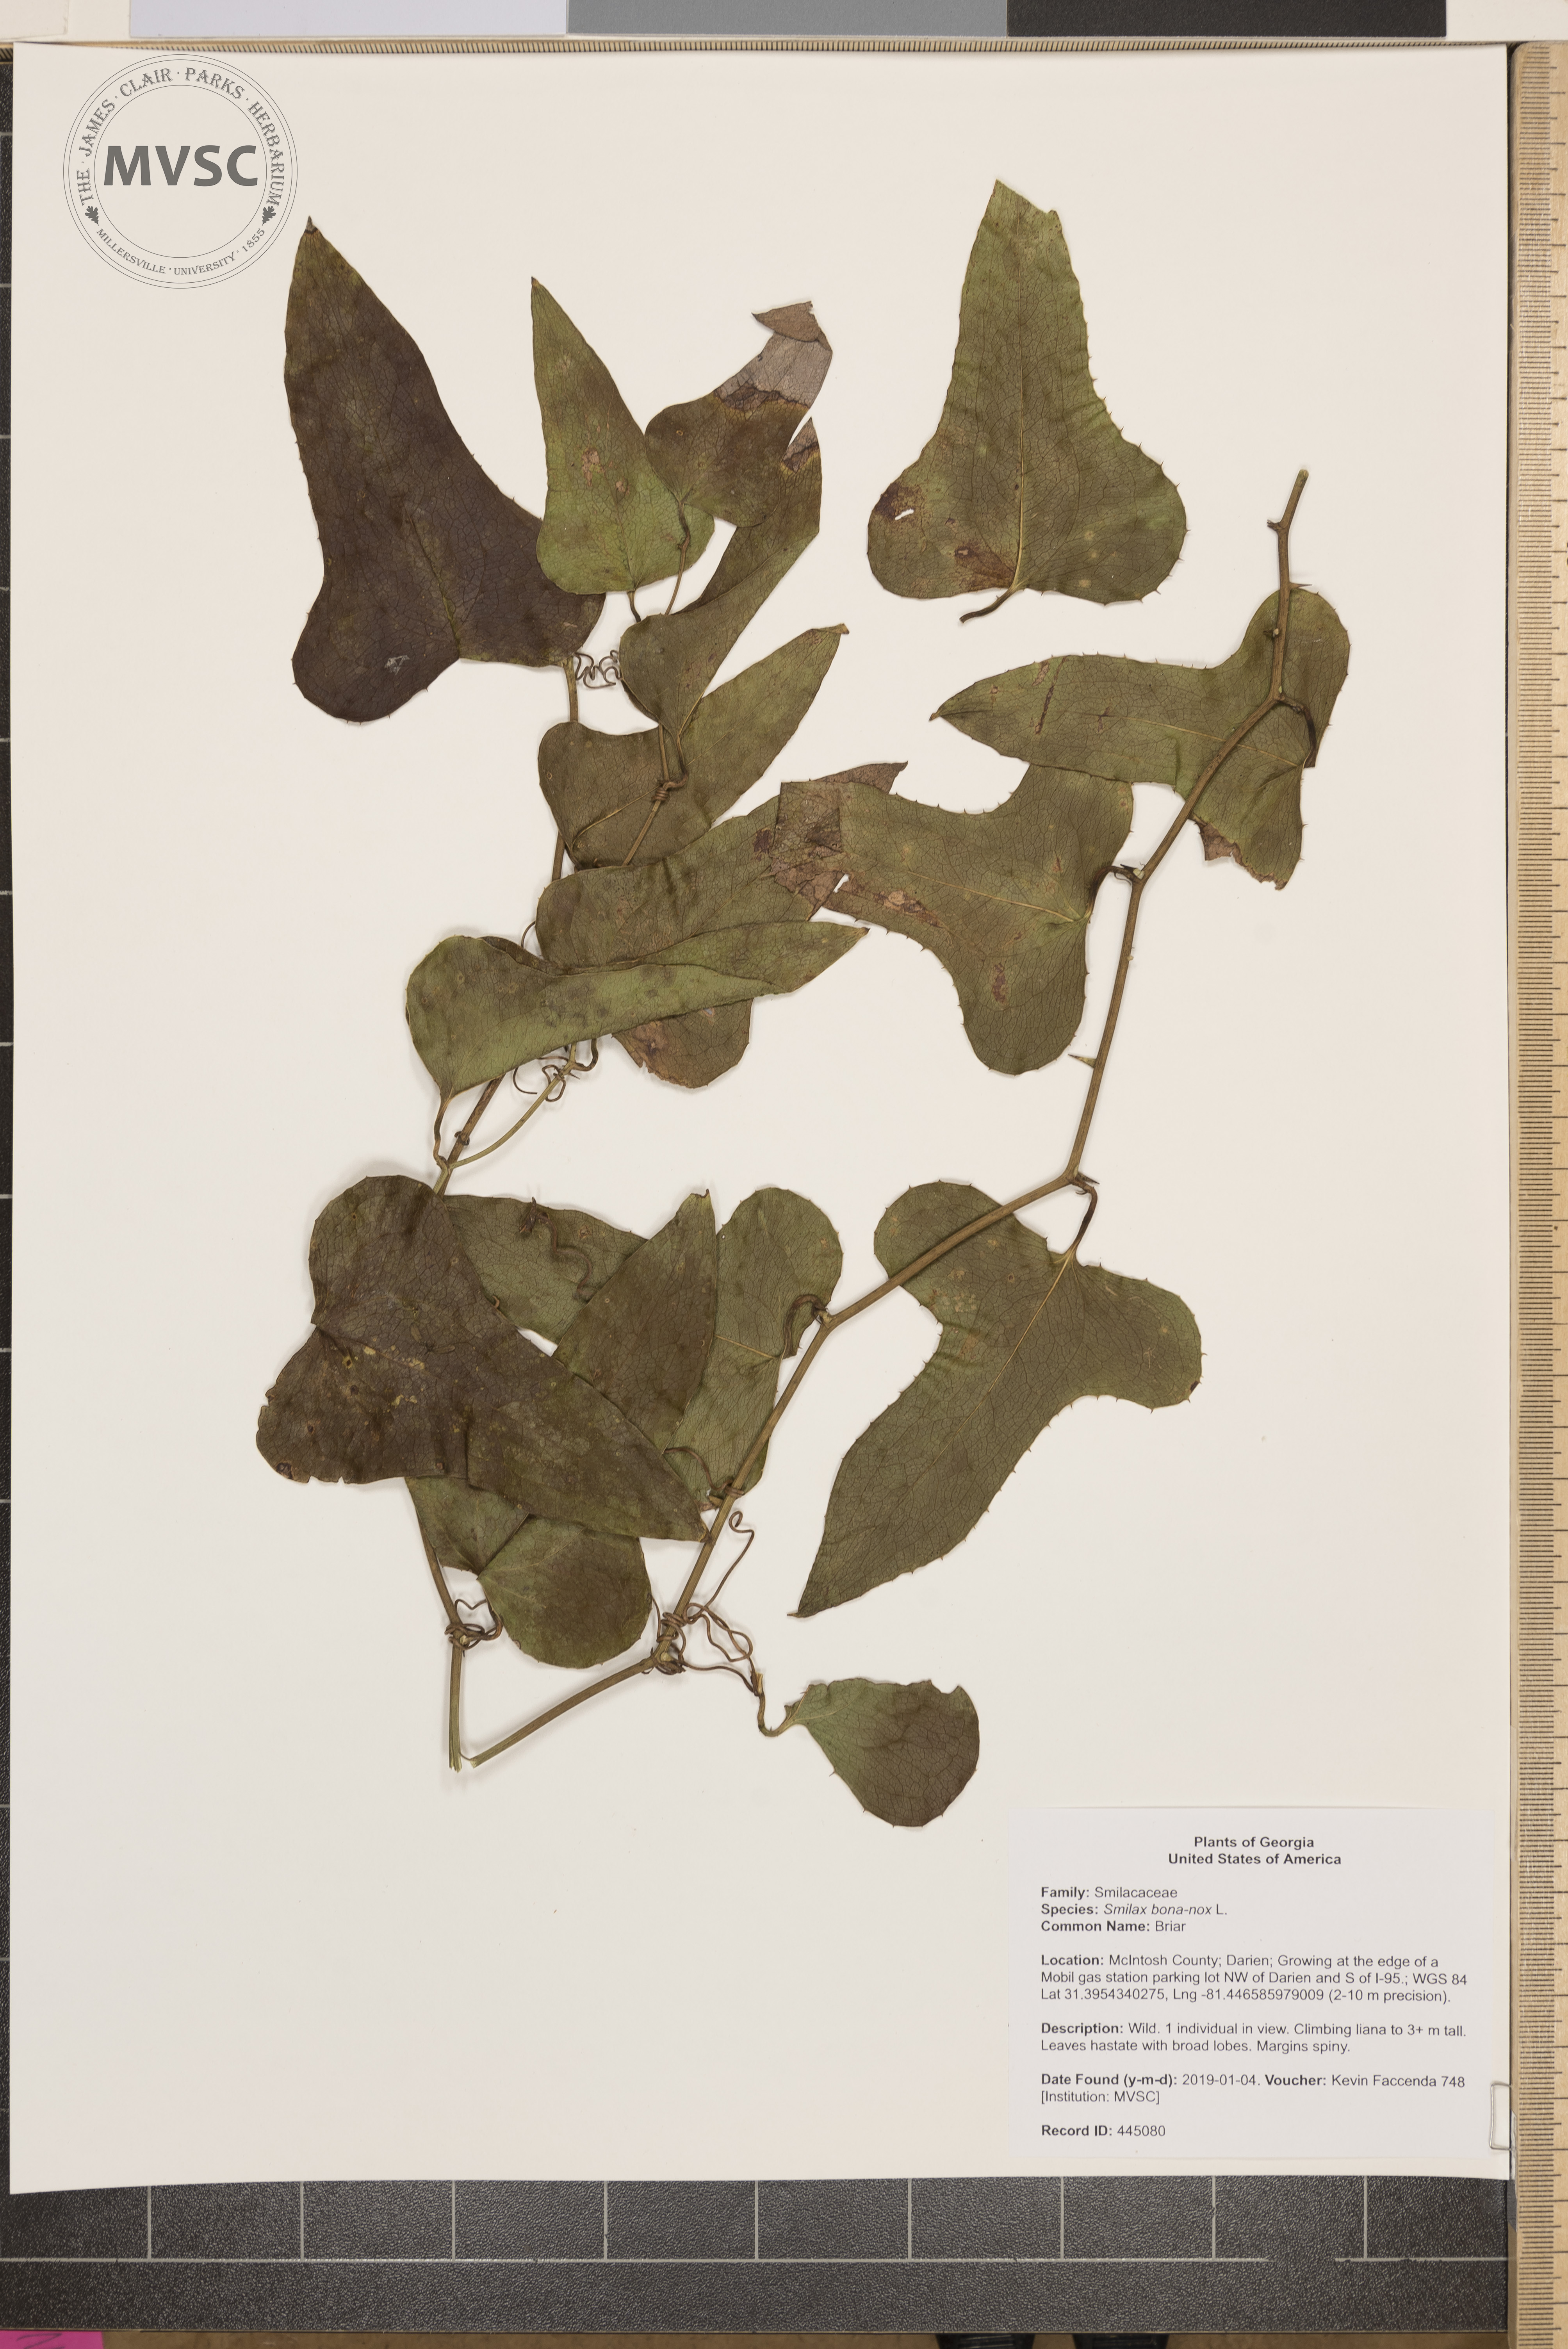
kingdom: Plantae
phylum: Tracheophyta
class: Liliopsida
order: Liliales
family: Smilacaceae
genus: Smilax
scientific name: Smilax bona-nox
